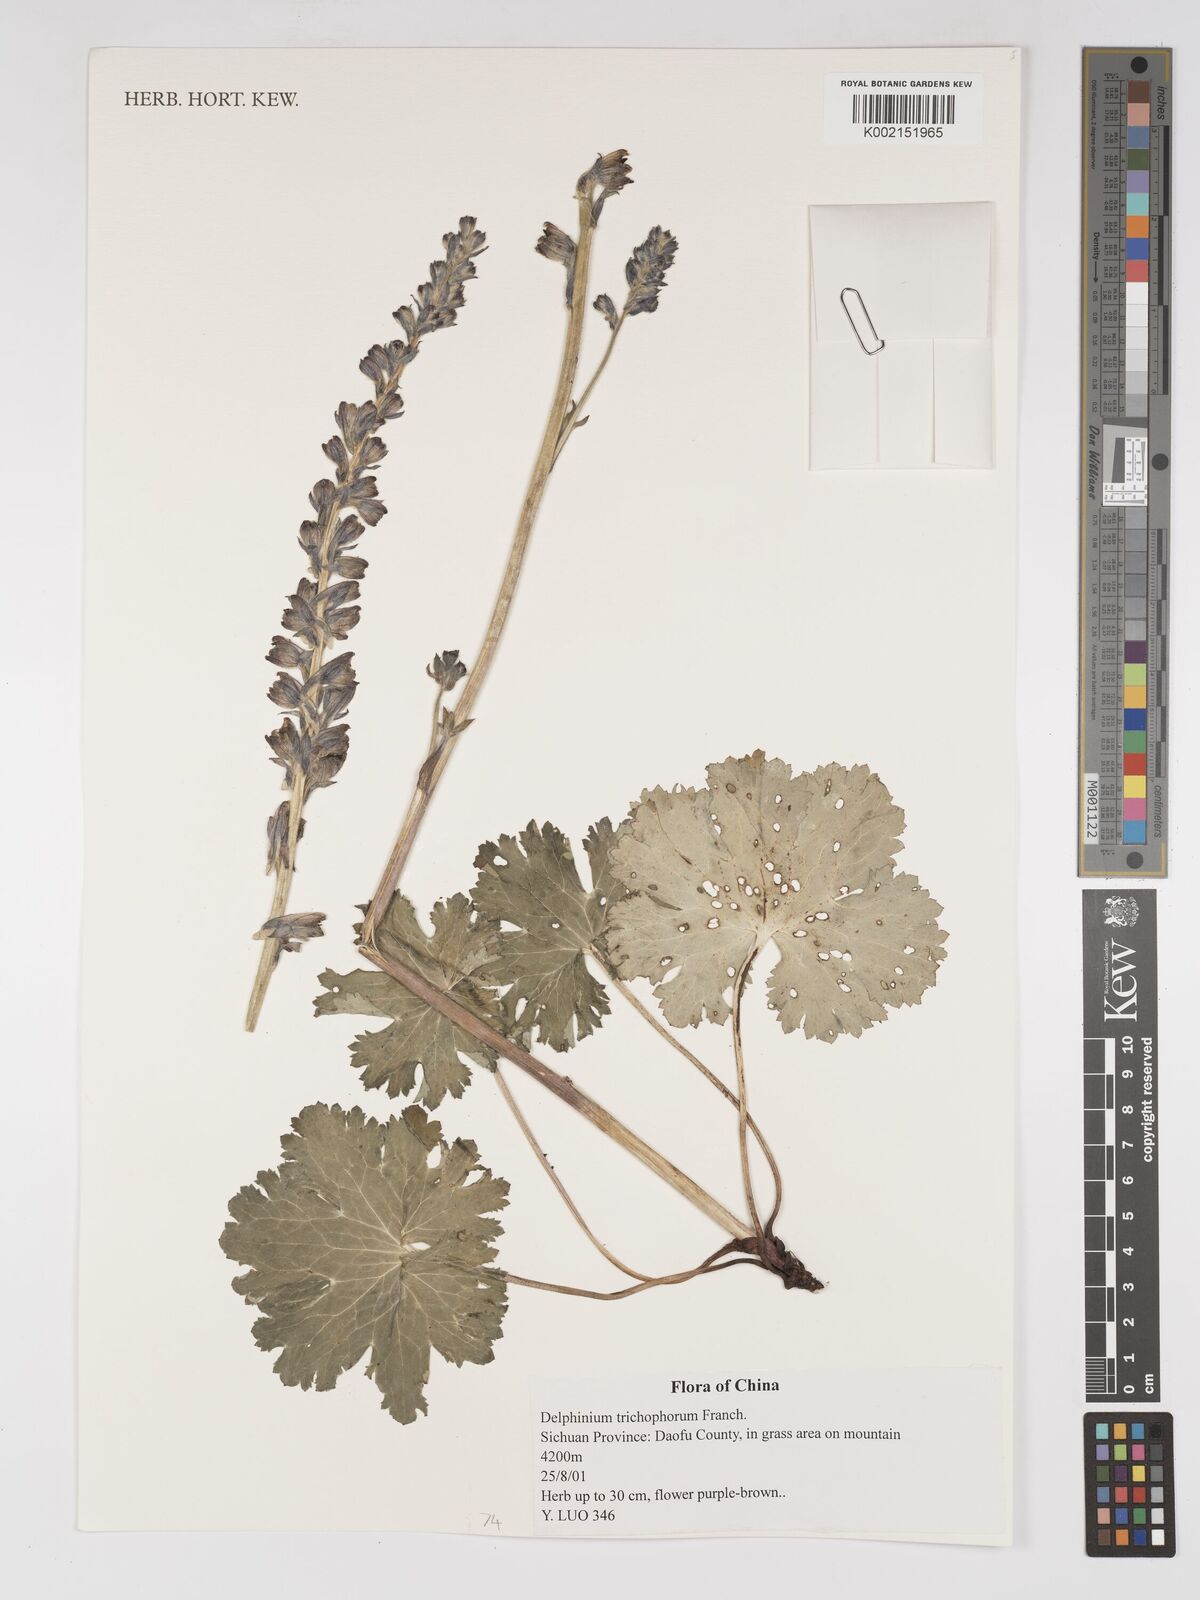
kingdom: Plantae
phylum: Tracheophyta
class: Magnoliopsida
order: Ranunculales
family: Ranunculaceae
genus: Delphinium
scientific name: Delphinium forrestii
